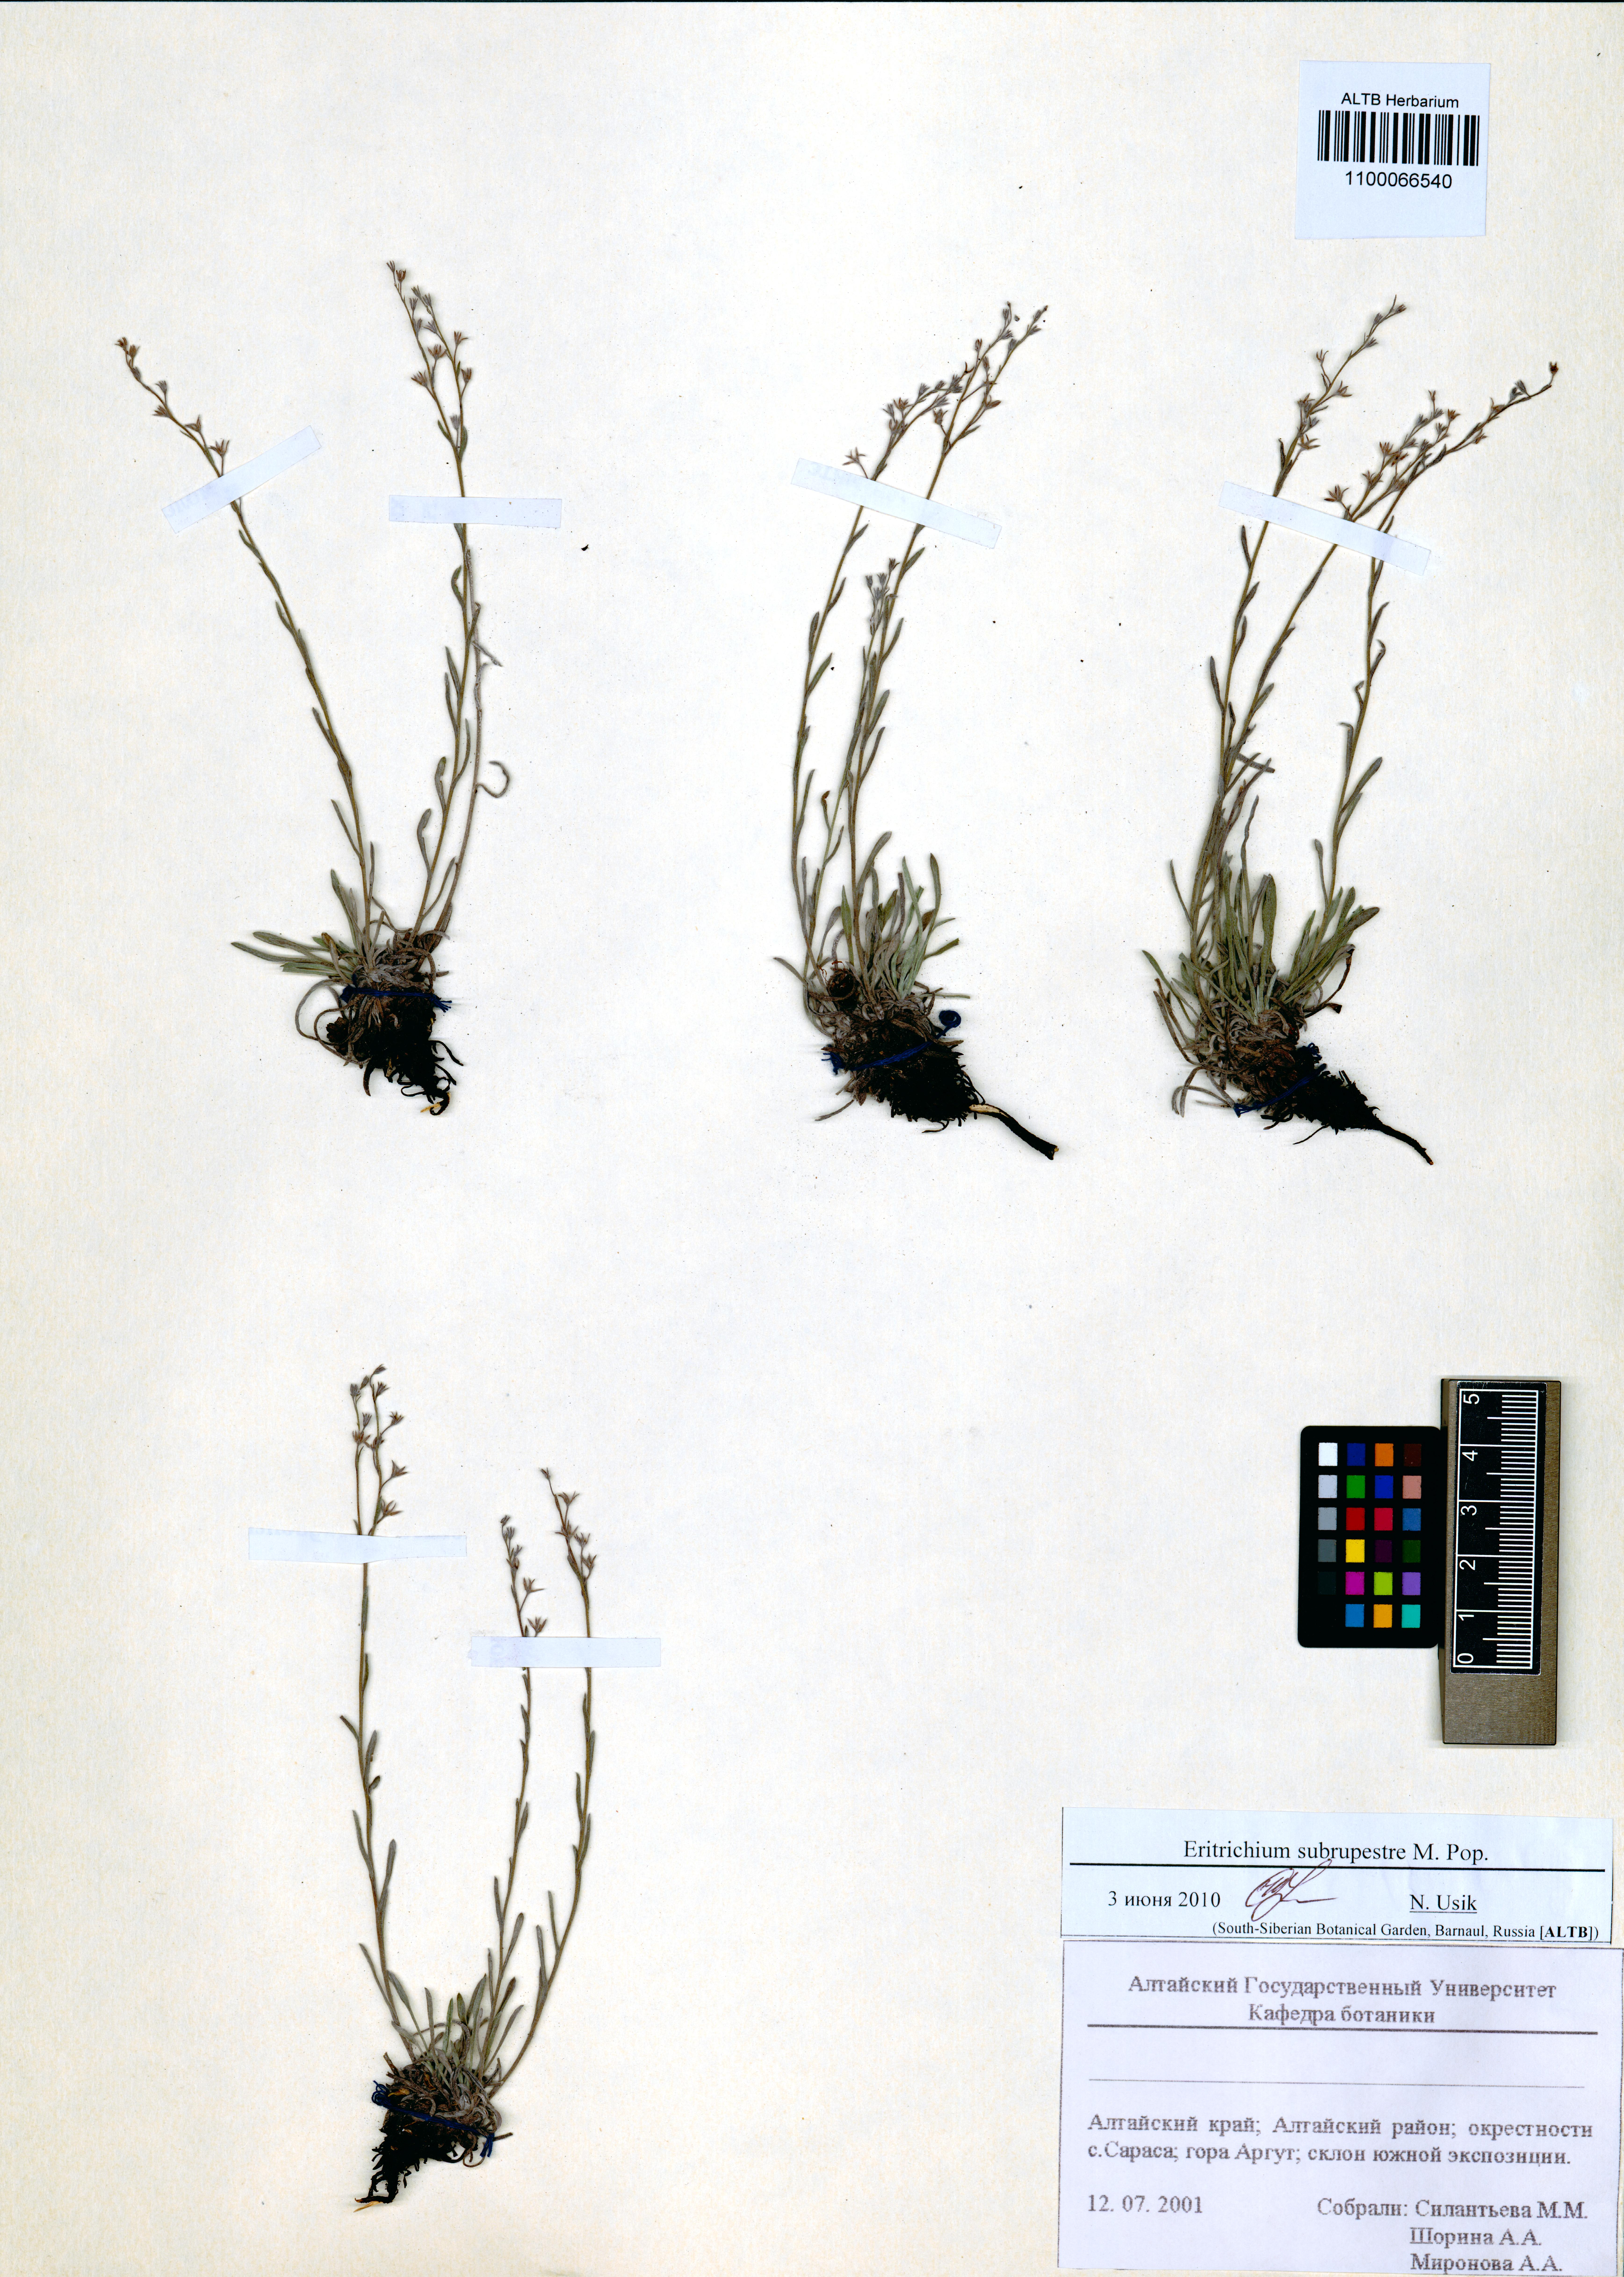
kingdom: Plantae
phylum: Tracheophyta
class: Magnoliopsida
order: Boraginales
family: Boraginaceae
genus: Eritrichium
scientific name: Eritrichium pauciflorum
